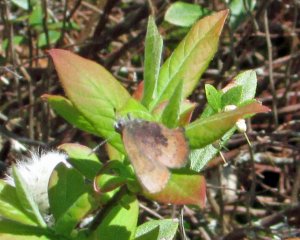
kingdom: Animalia
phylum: Arthropoda
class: Insecta
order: Lepidoptera
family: Lycaenidae
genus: Incisalia
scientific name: Incisalia irioides
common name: Brown Elfin
